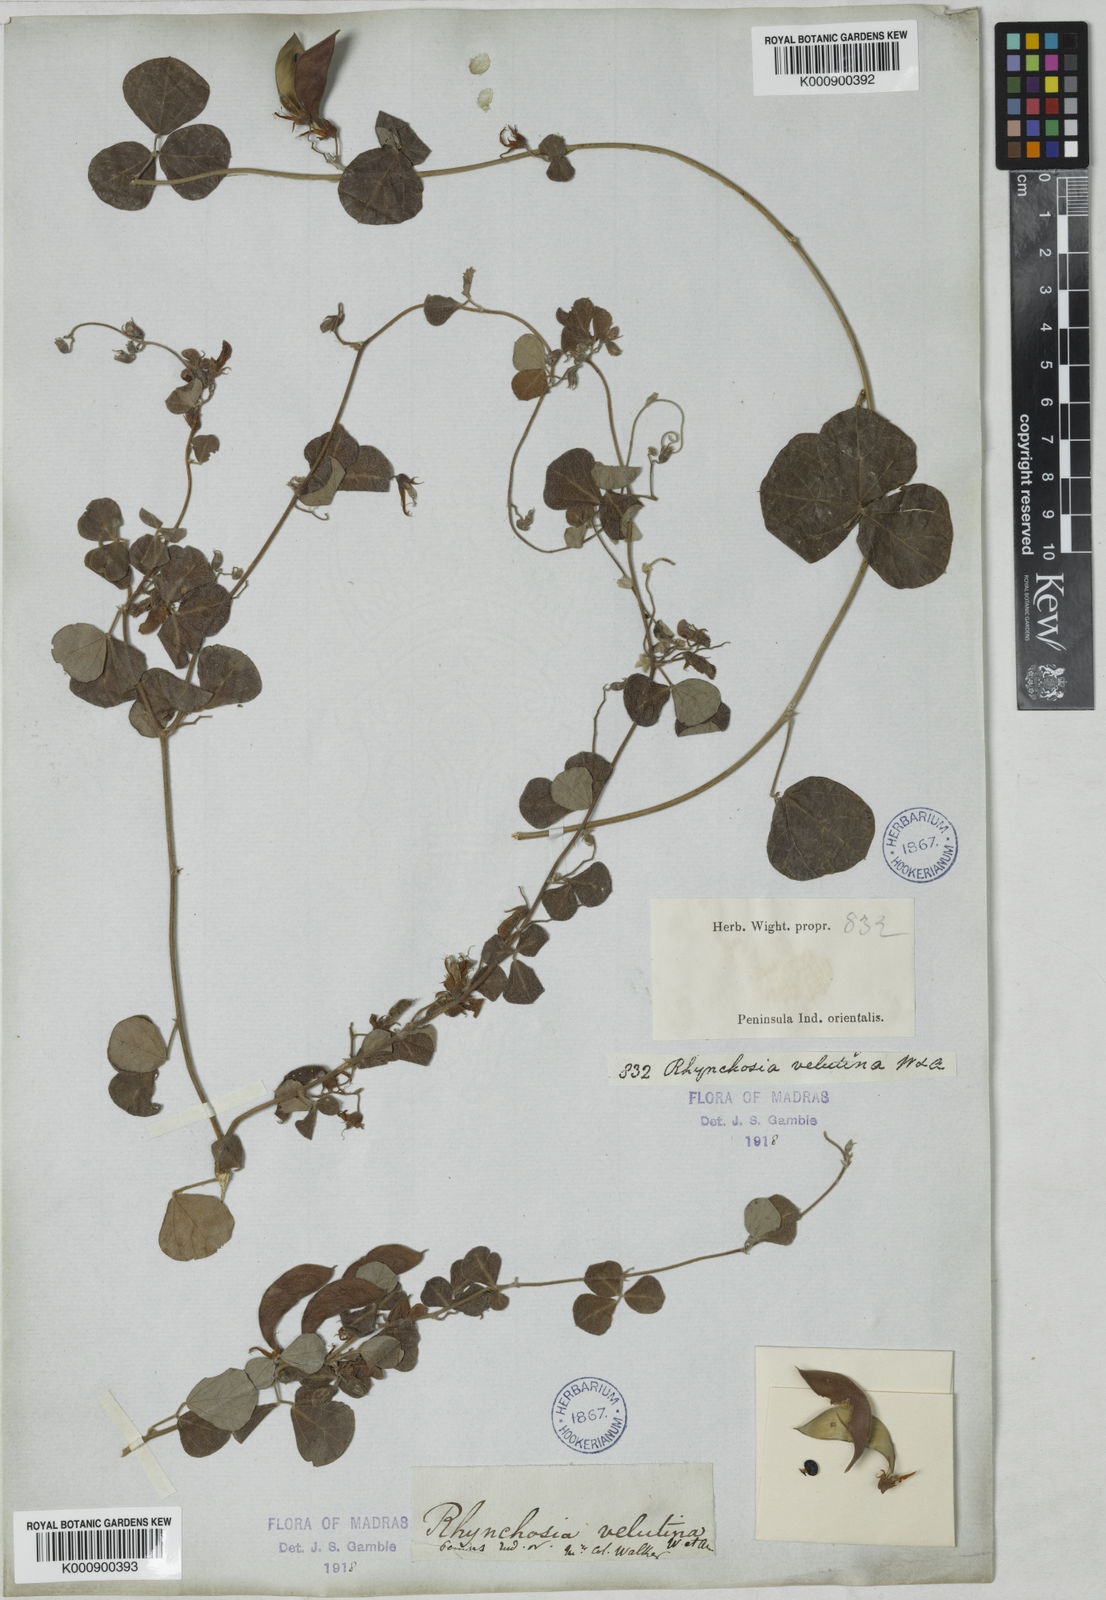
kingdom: Plantae
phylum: Tracheophyta
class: Magnoliopsida
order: Fabales
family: Fabaceae
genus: Rhynchosia
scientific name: Rhynchosia velutina
